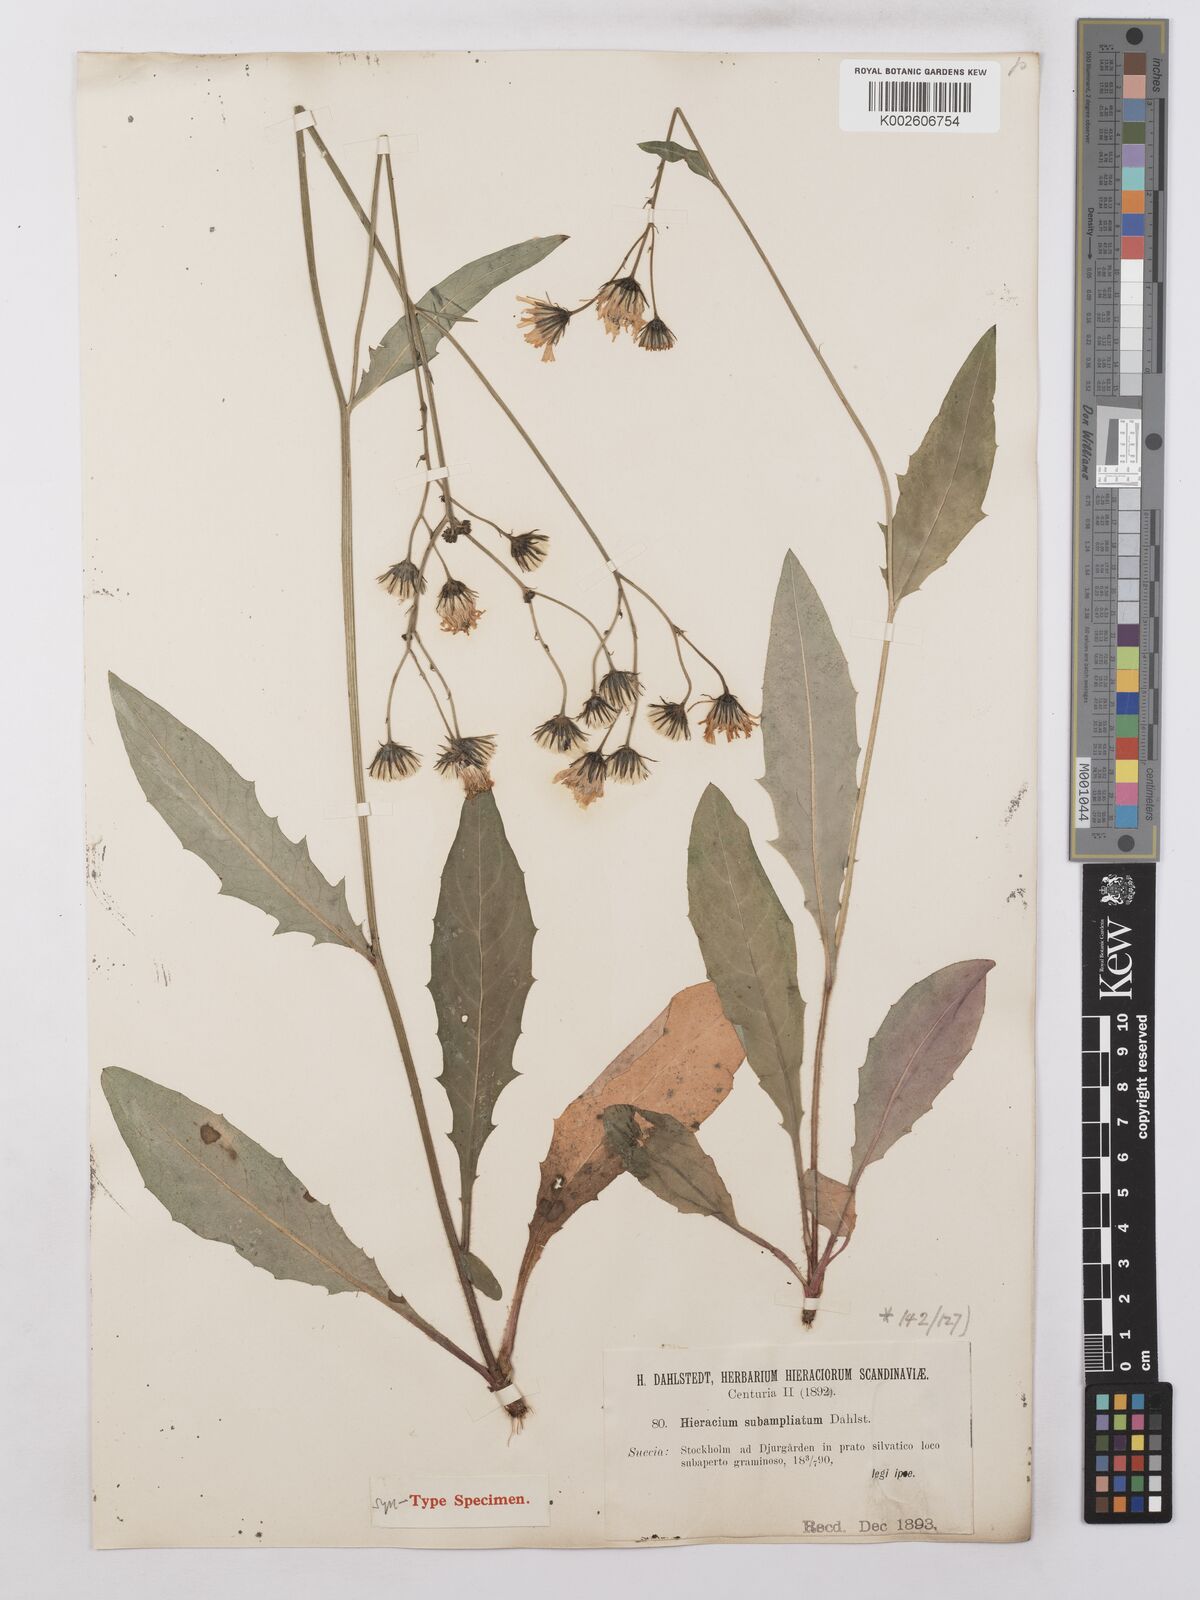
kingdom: Plantae
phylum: Tracheophyta
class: Magnoliopsida
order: Asterales
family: Asteraceae
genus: Hieracium
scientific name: Hieracium lachenalii
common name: Common hawkweed
